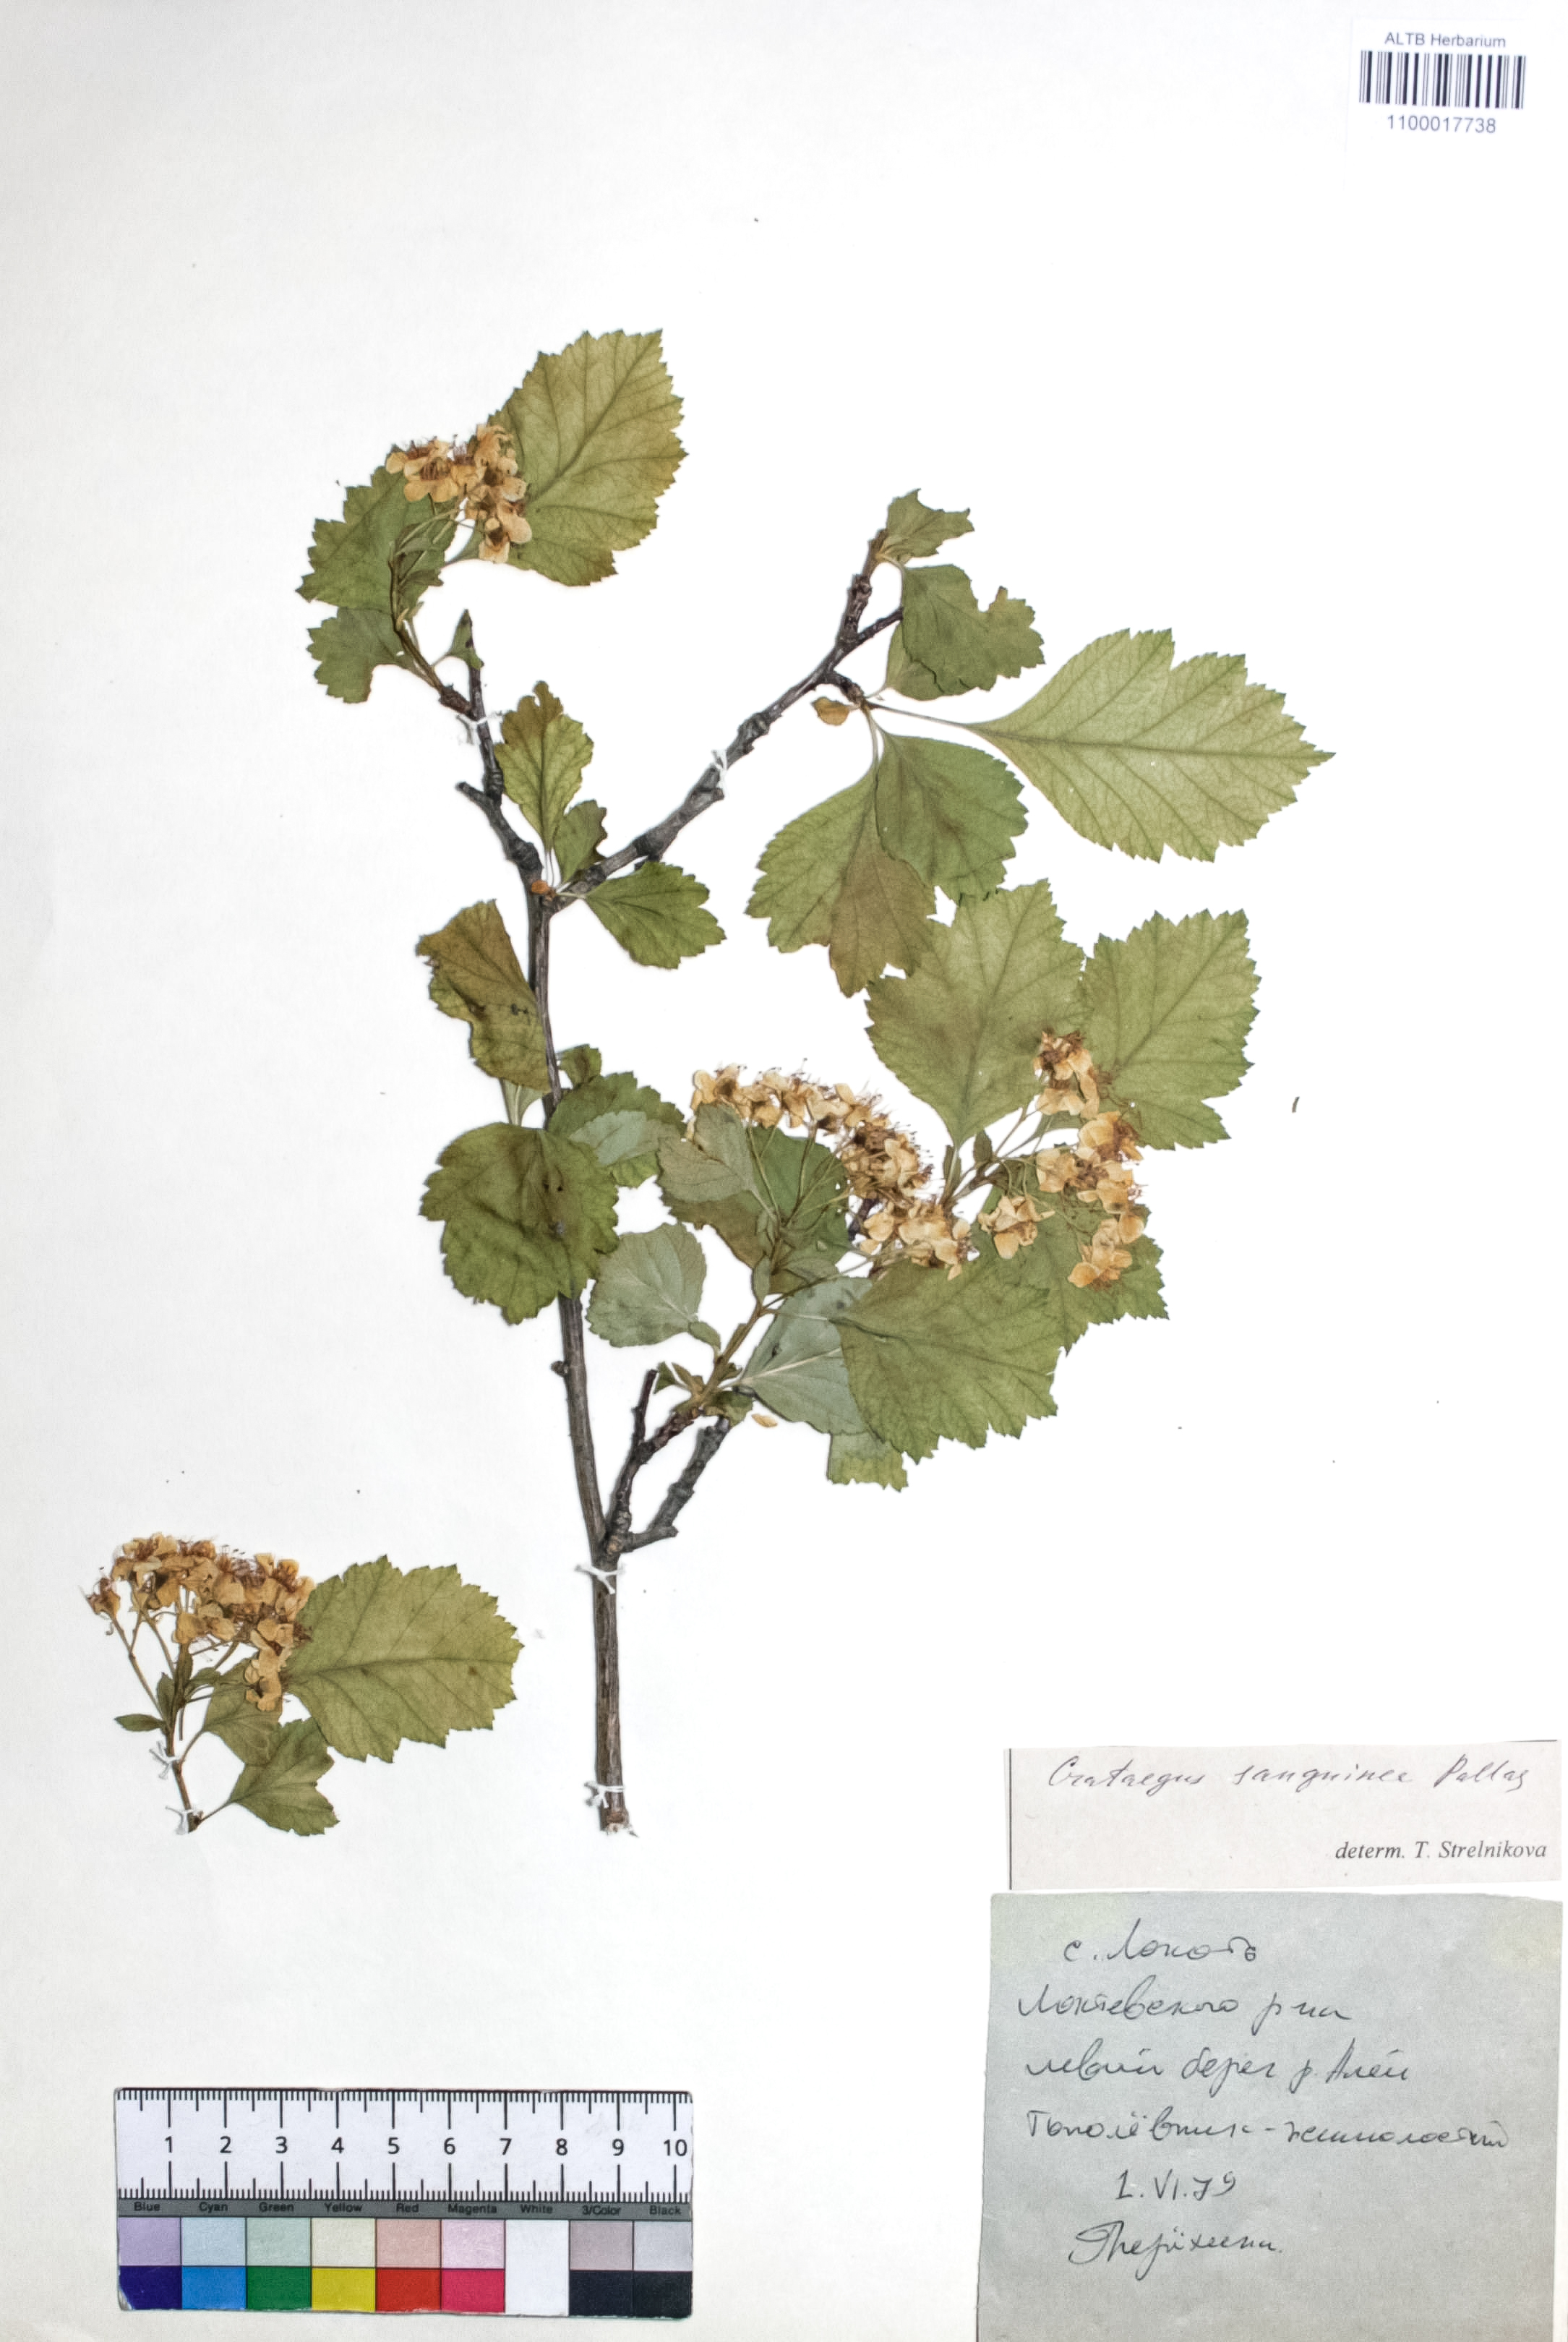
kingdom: Plantae
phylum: Tracheophyta
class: Magnoliopsida
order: Rosales
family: Rosaceae
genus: Crataegus
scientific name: Crataegus sanguinea
